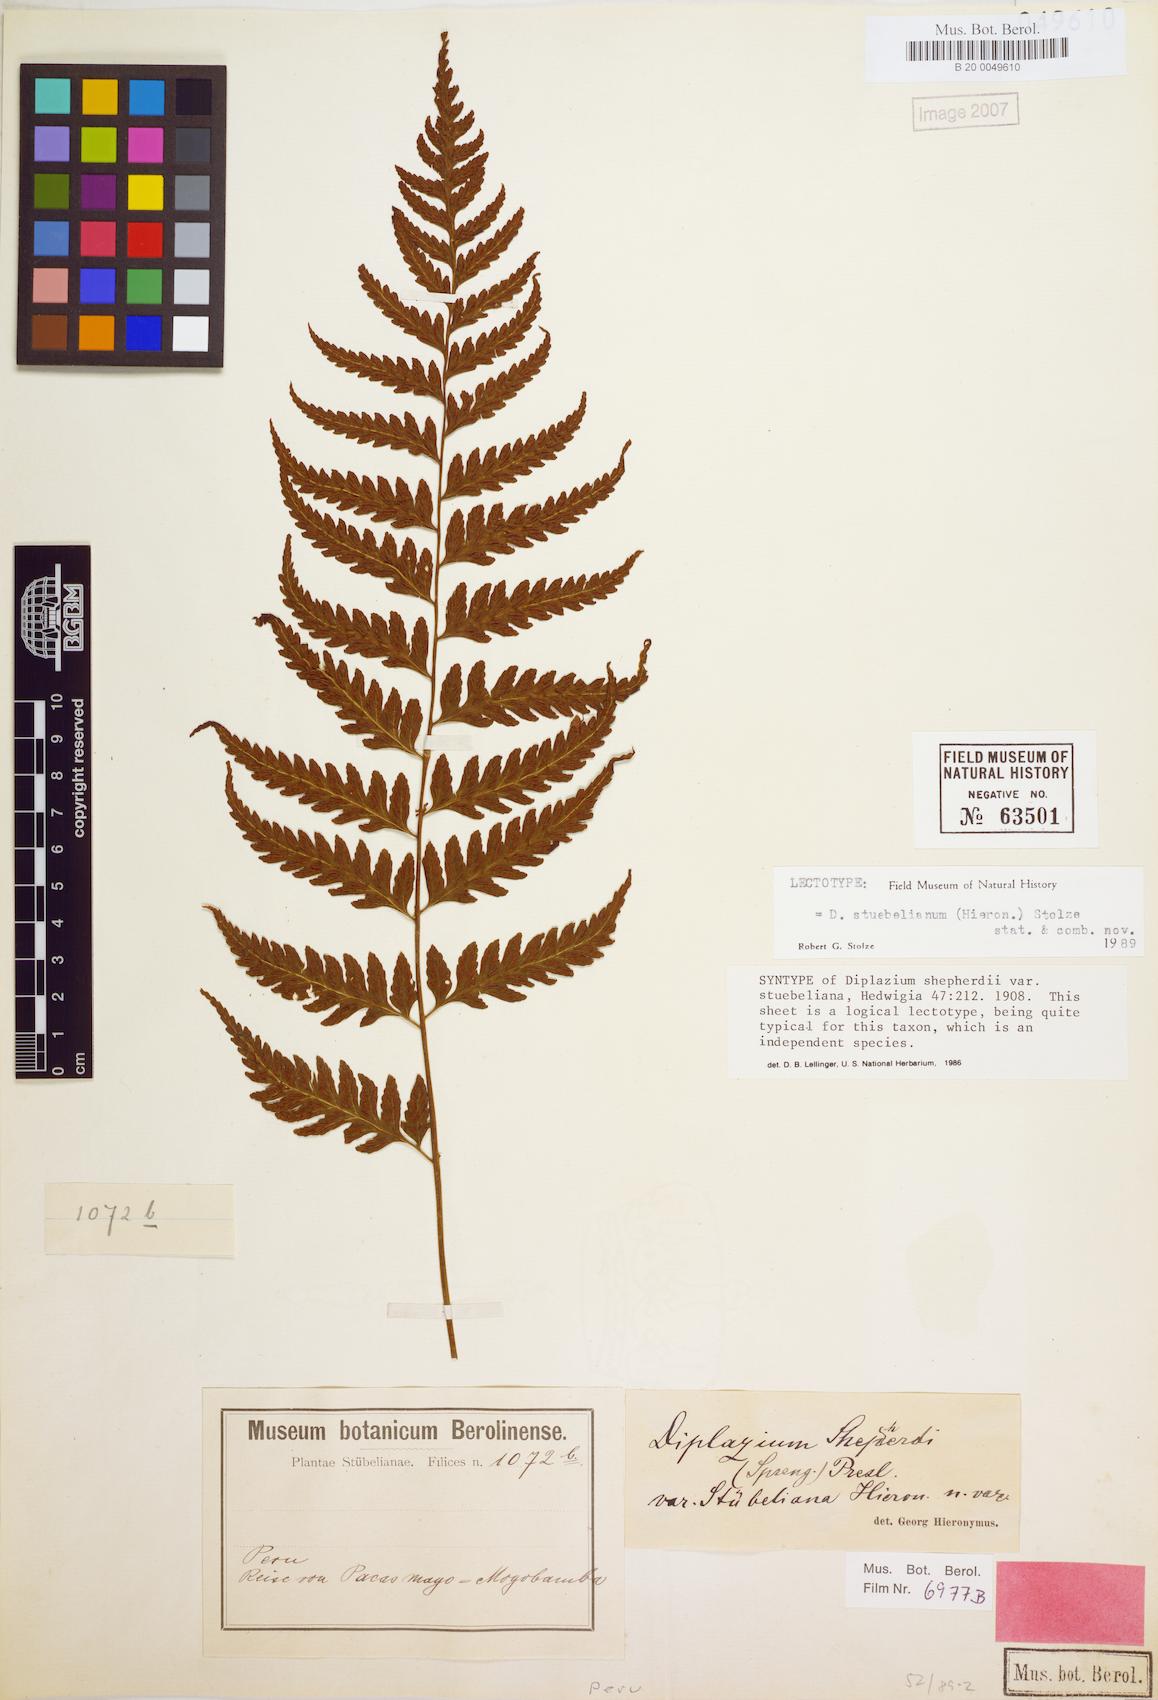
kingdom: Plantae
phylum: Tracheophyta
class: Polypodiopsida
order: Polypodiales
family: Athyriaceae
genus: Diplazium
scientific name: Diplazium stuebelianum
